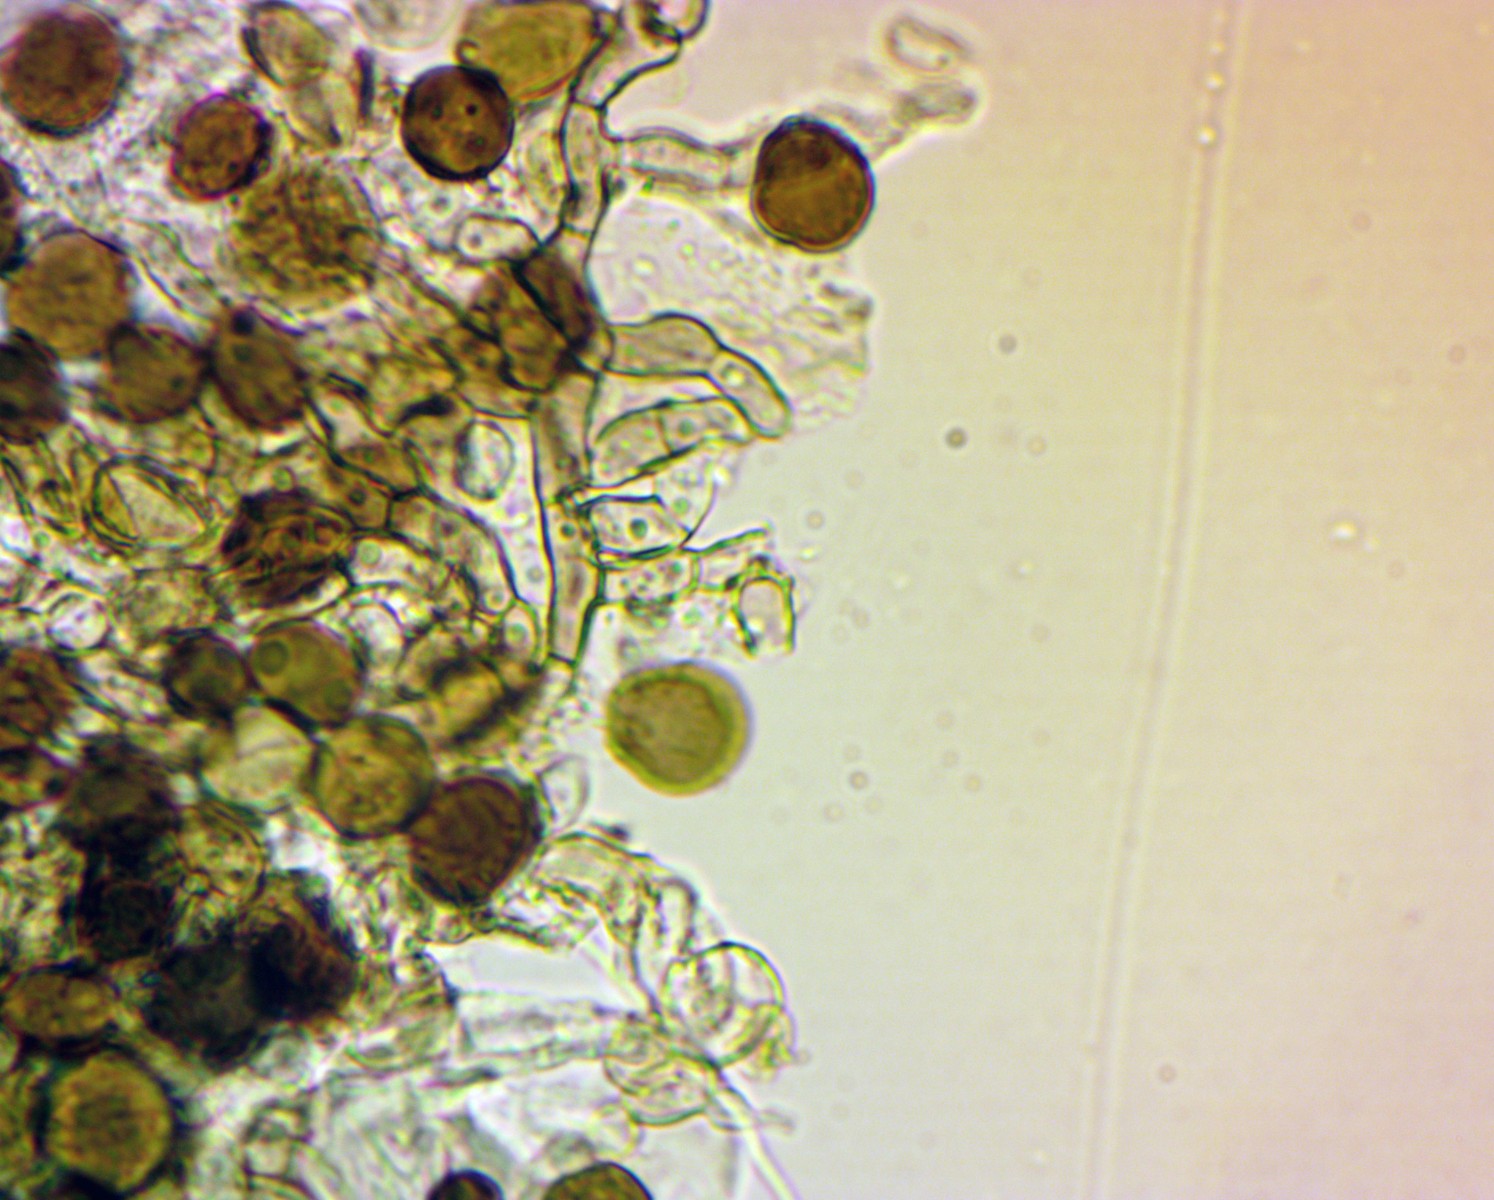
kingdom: Fungi
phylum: Ascomycota
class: Sordariomycetes
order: Xylariales
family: Apiosporaceae
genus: Apiospora
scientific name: Apiospora sphaerosperma
